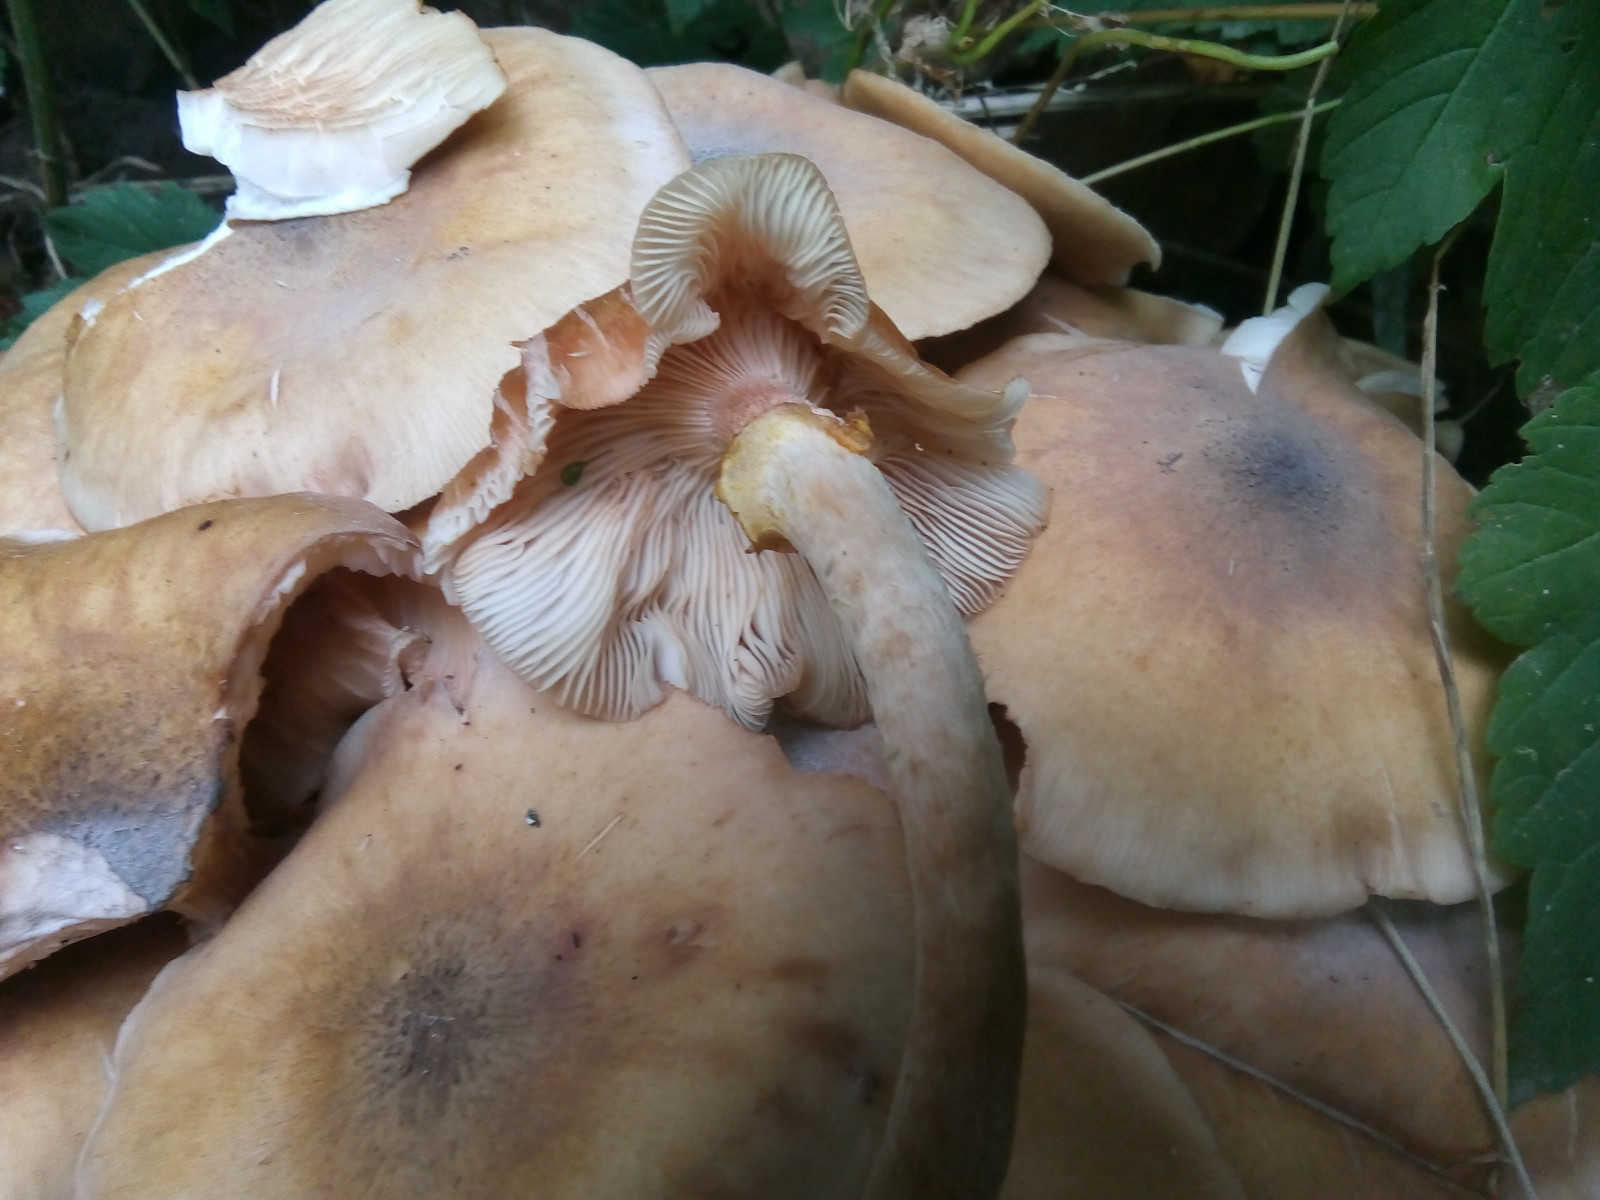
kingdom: Fungi
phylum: Basidiomycota
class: Agaricomycetes
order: Agaricales
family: Physalacriaceae
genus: Armillaria
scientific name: Armillaria mellea
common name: ægte honningsvamp
